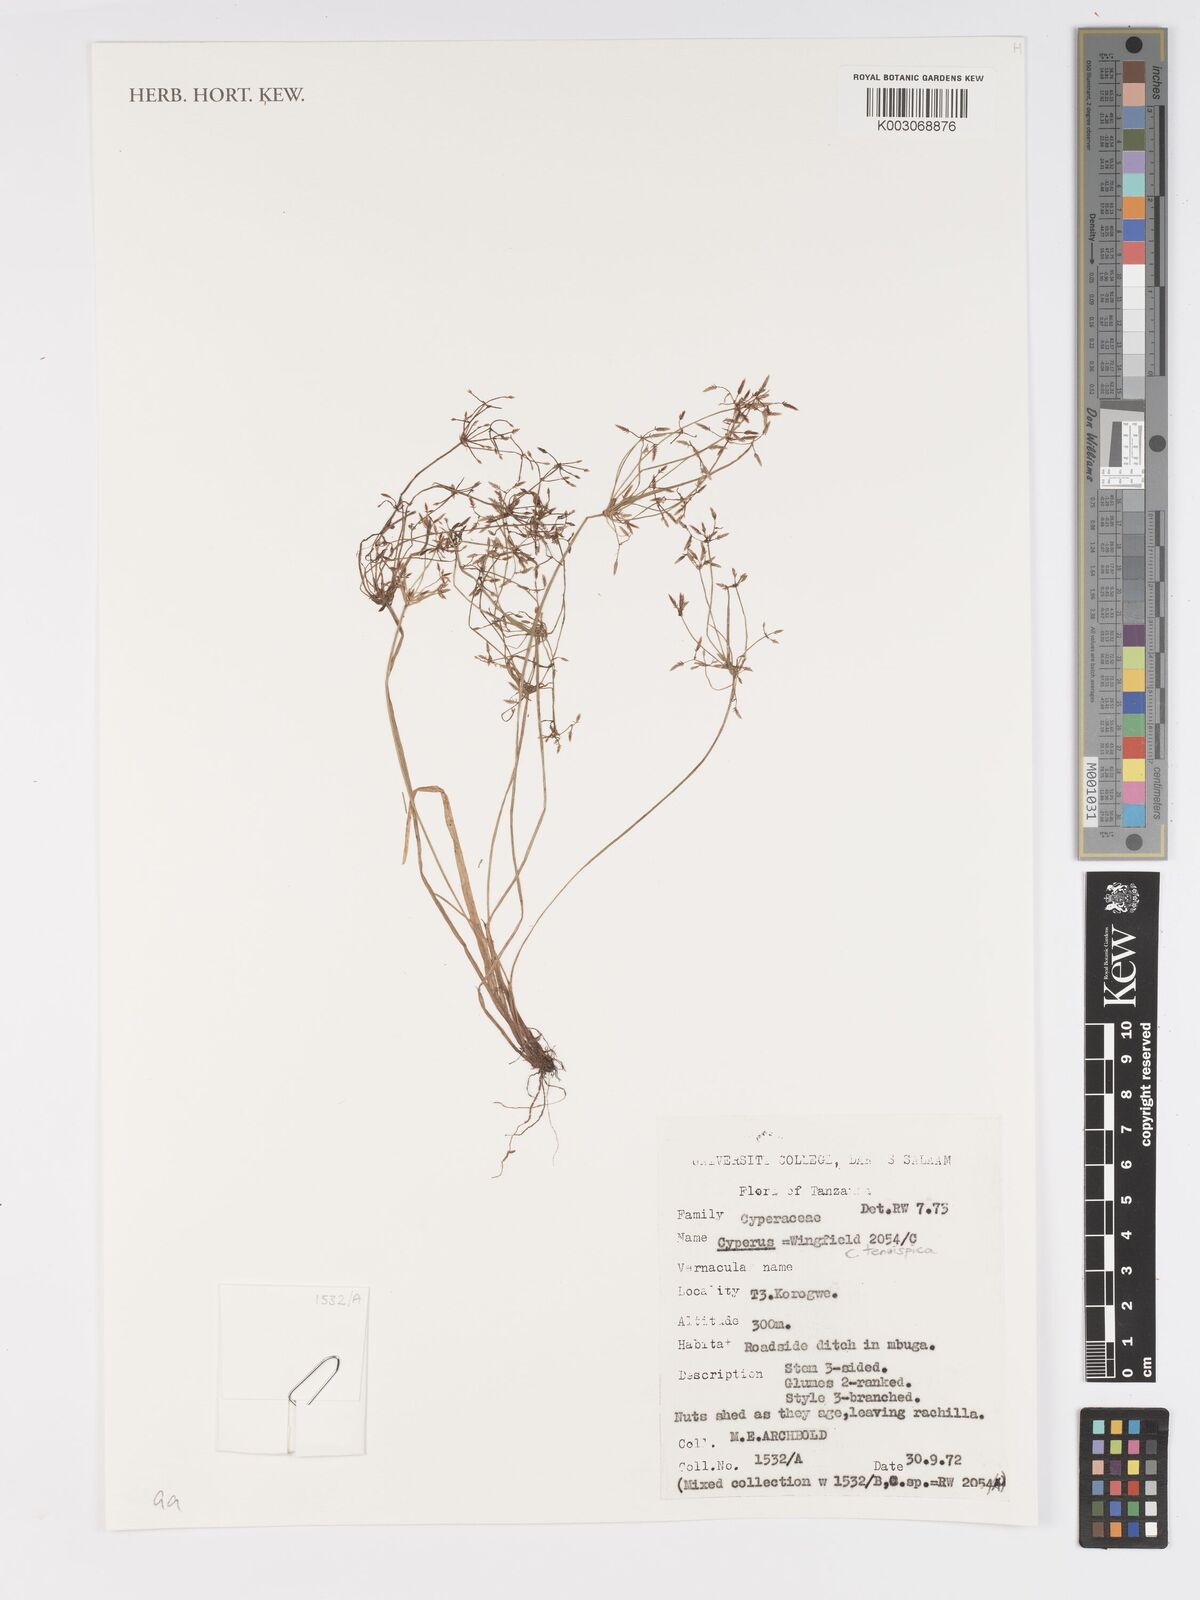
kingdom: Plantae
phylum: Tracheophyta
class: Liliopsida
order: Poales
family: Cyperaceae
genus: Cyperus
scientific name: Cyperus tenuispica
